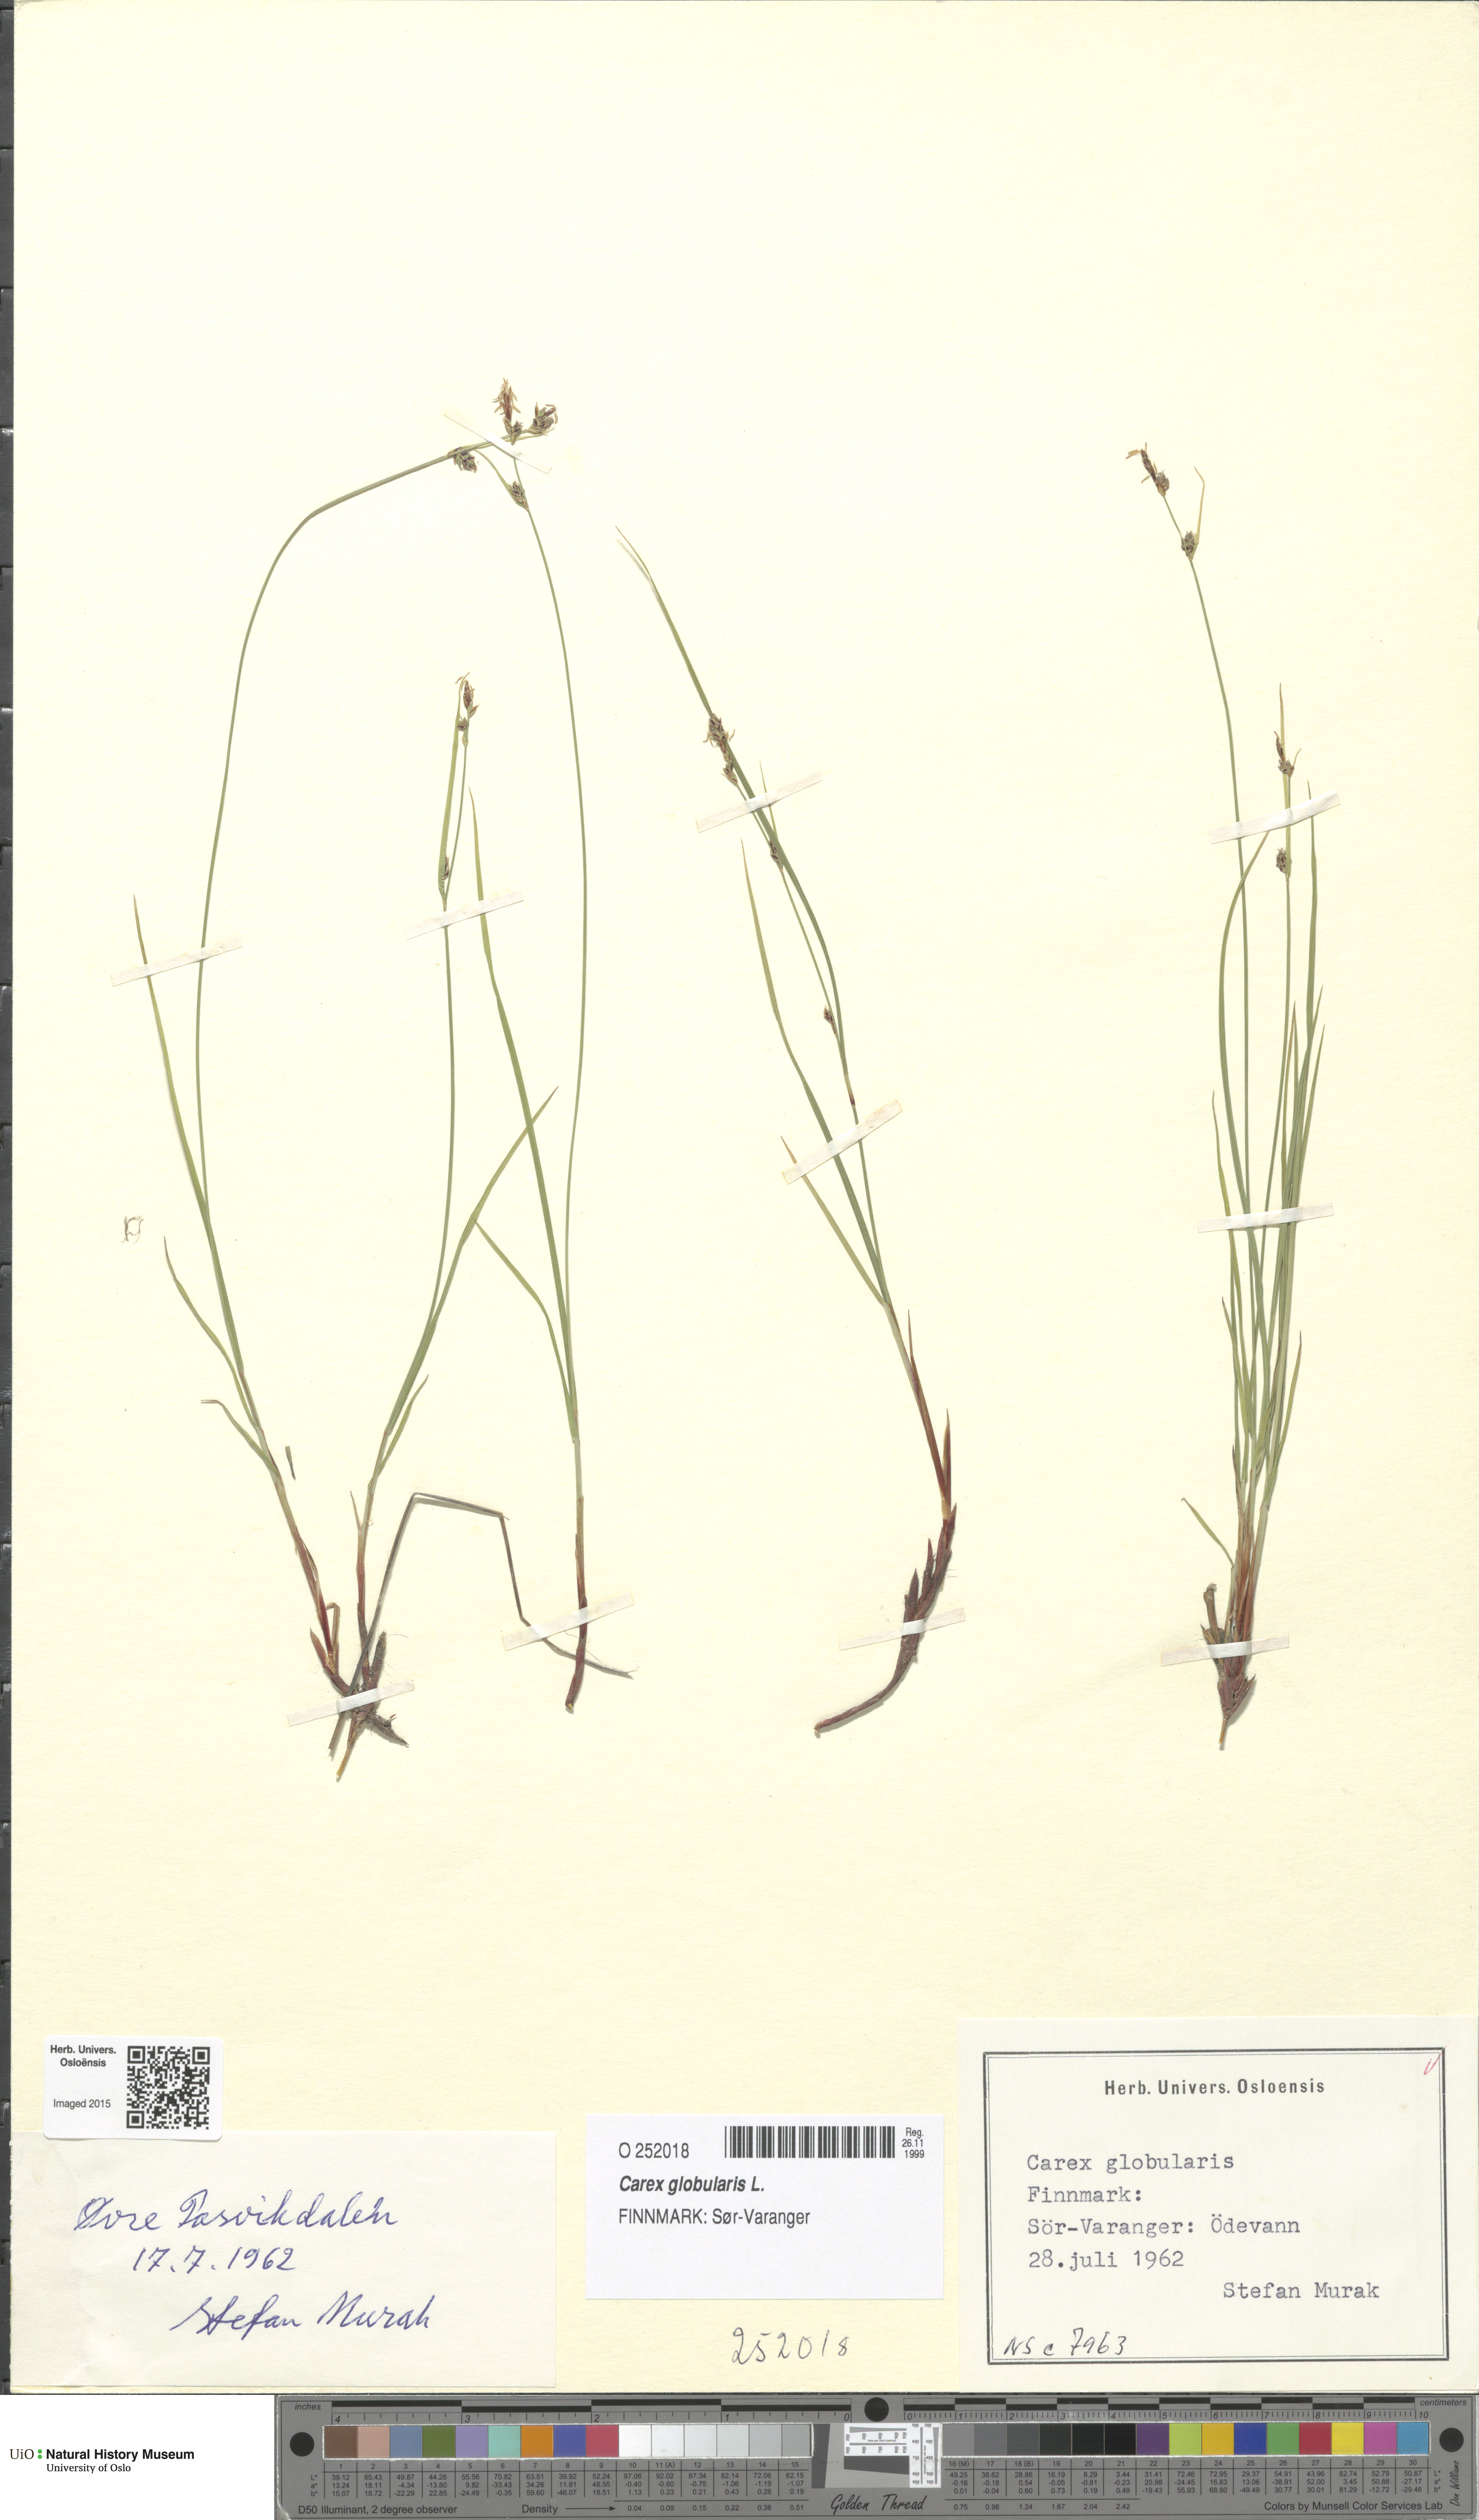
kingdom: Plantae
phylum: Tracheophyta
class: Liliopsida
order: Poales
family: Cyperaceae
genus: Carex
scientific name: Carex globularis
